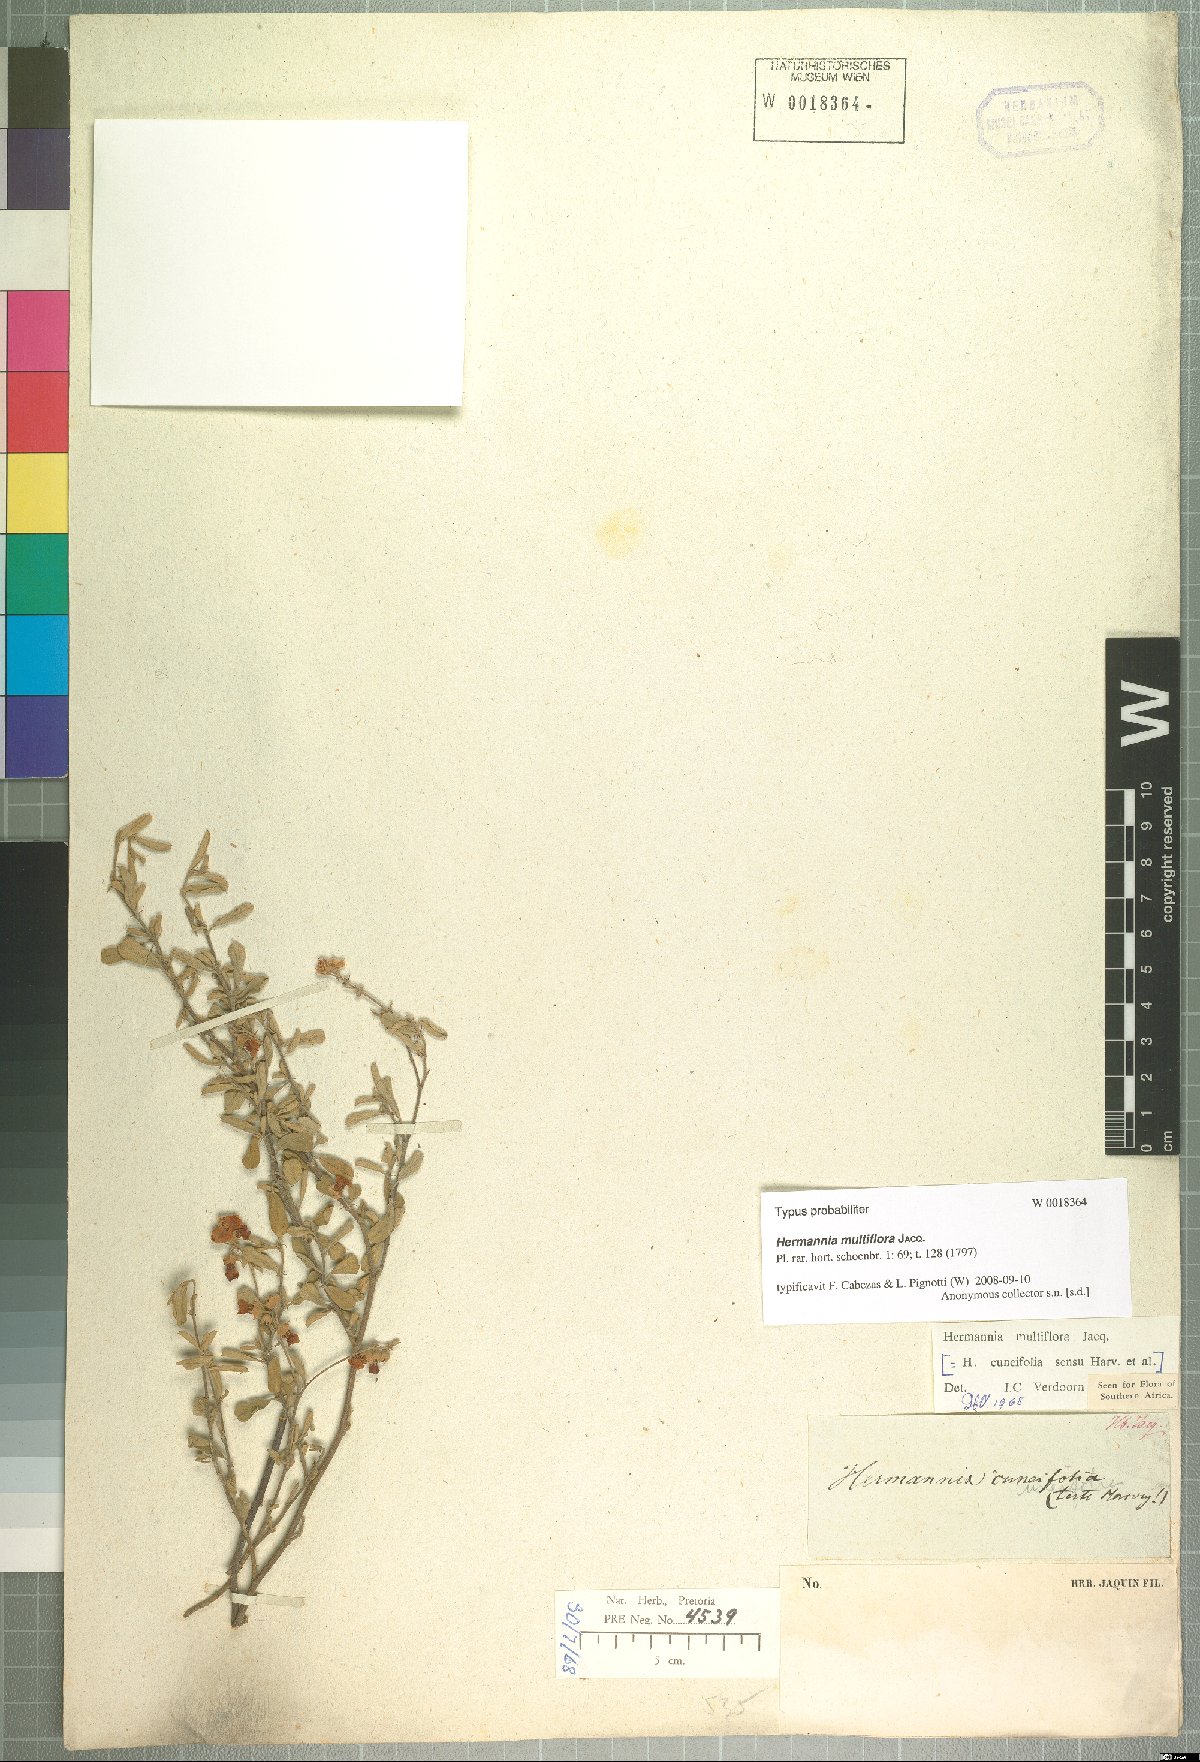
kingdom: Plantae
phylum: Tracheophyta
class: Magnoliopsida
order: Malvales
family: Malvaceae
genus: Hermannia
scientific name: Hermannia multiflora
